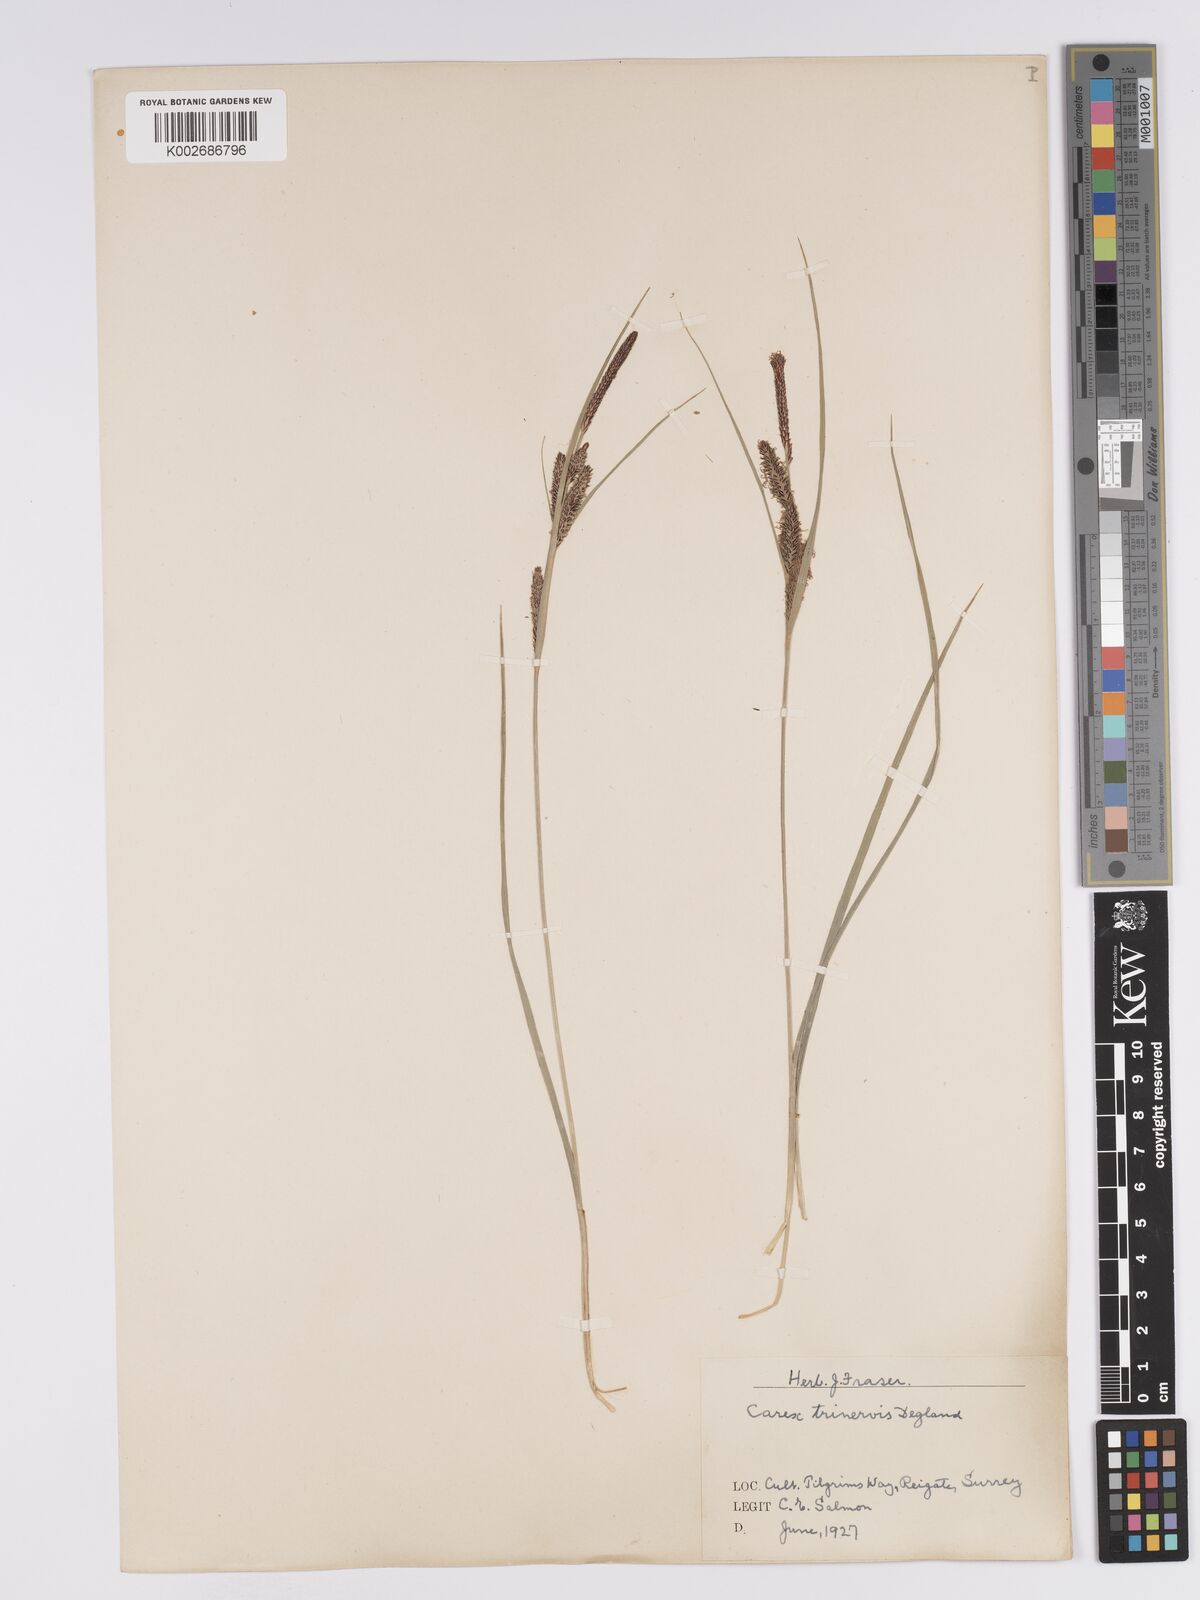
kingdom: Plantae
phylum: Tracheophyta
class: Liliopsida
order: Poales
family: Cyperaceae
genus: Carex
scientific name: Carex trinervis
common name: Three-nerved sedge
